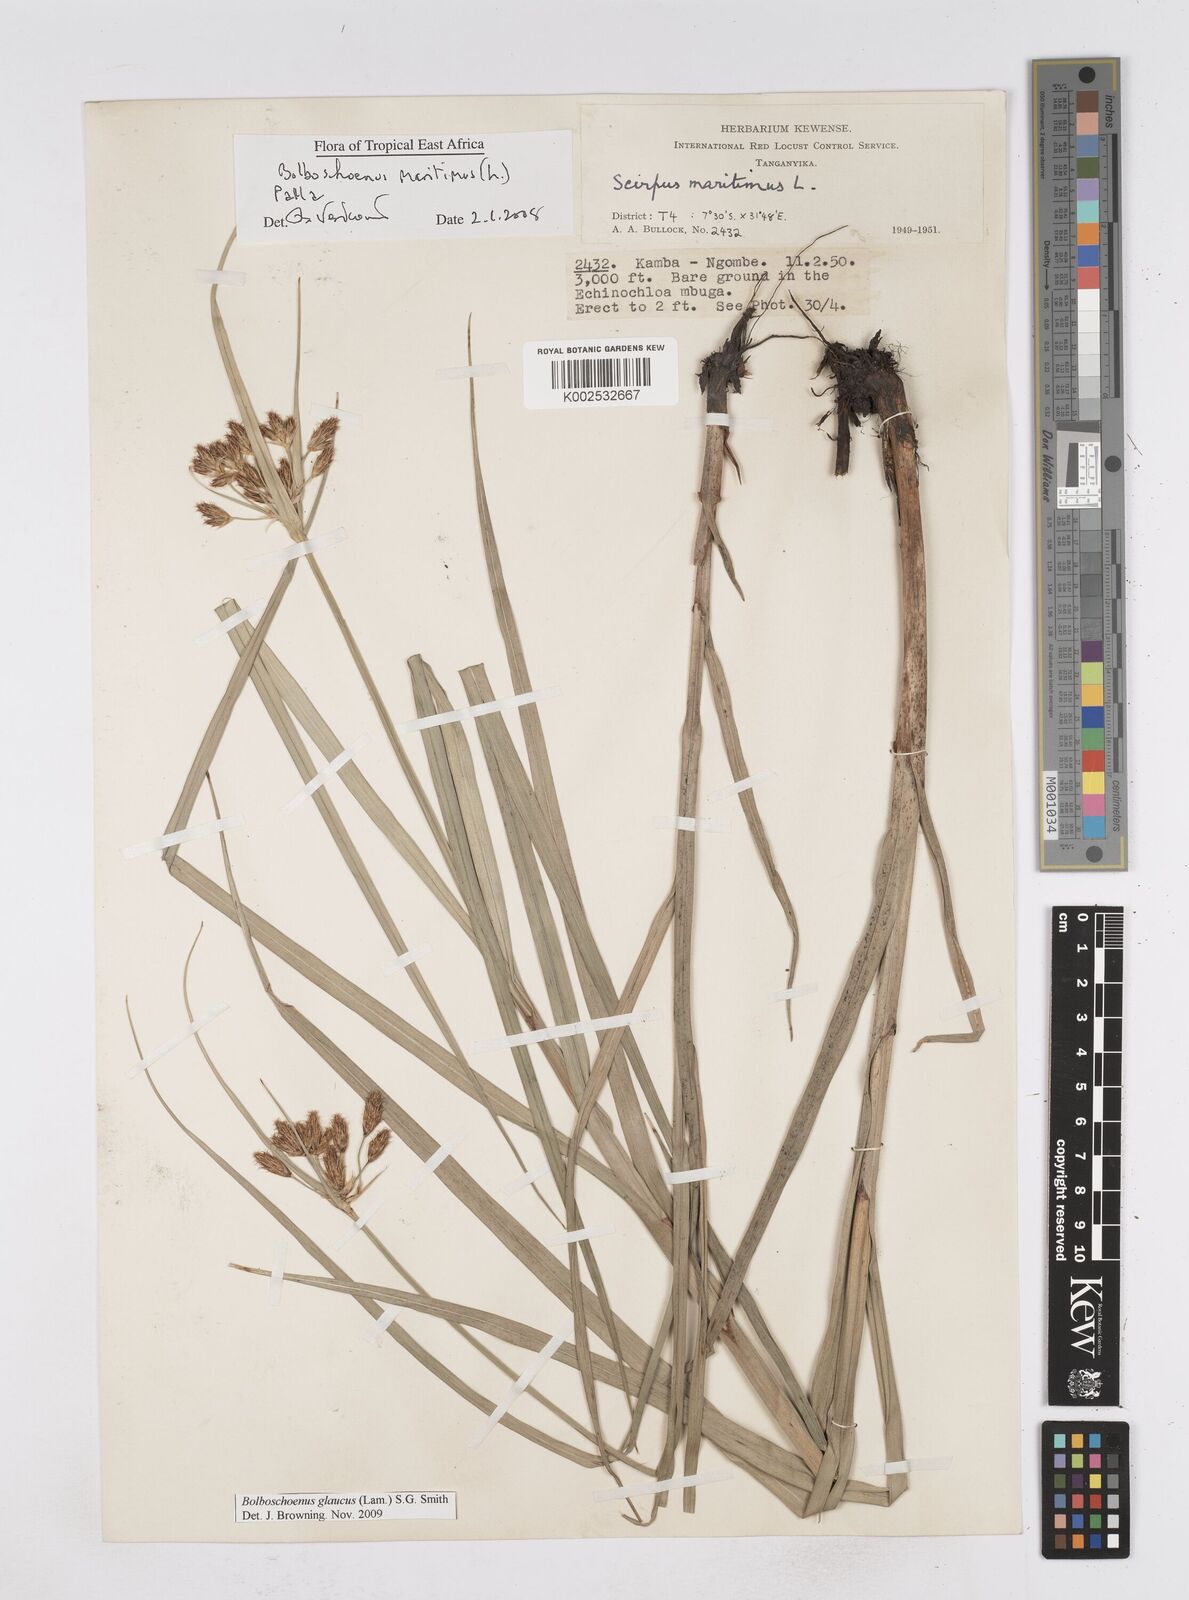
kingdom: Plantae
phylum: Tracheophyta
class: Liliopsida
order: Poales
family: Cyperaceae
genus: Bolboschoenus
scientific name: Bolboschoenus glaucus
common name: Tuberous bulrush
